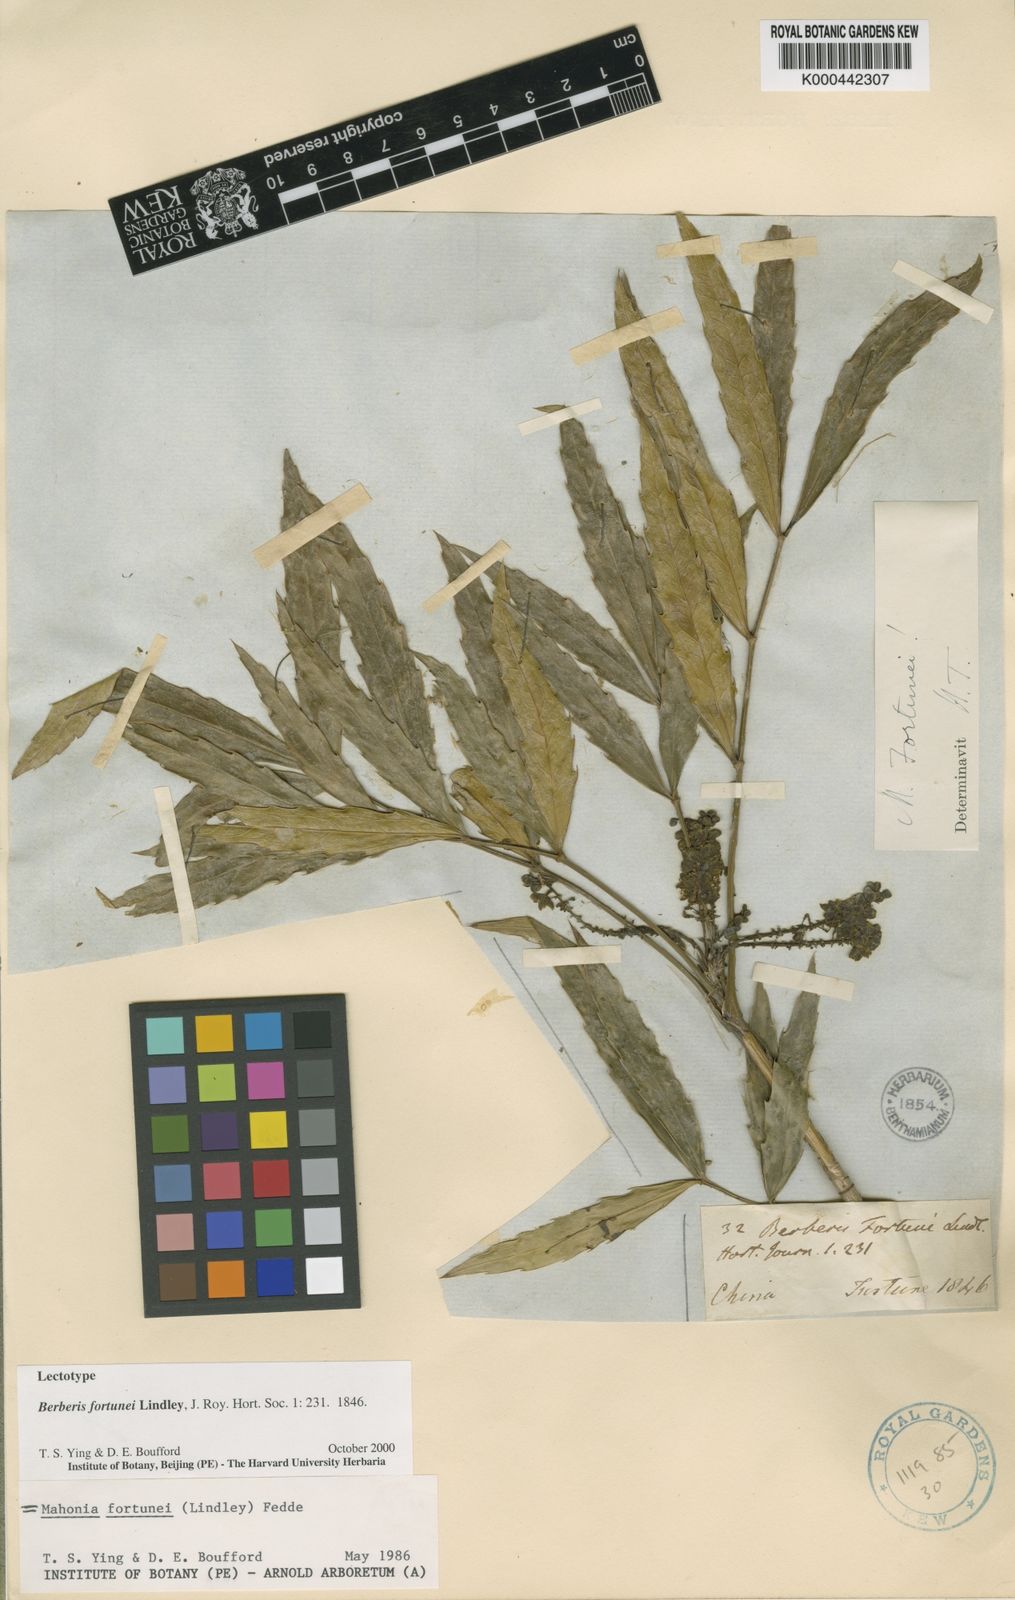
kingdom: Plantae
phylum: Tracheophyta
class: Magnoliopsida
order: Ranunculales
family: Berberidaceae
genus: Mahonia
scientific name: Mahonia fortunei
